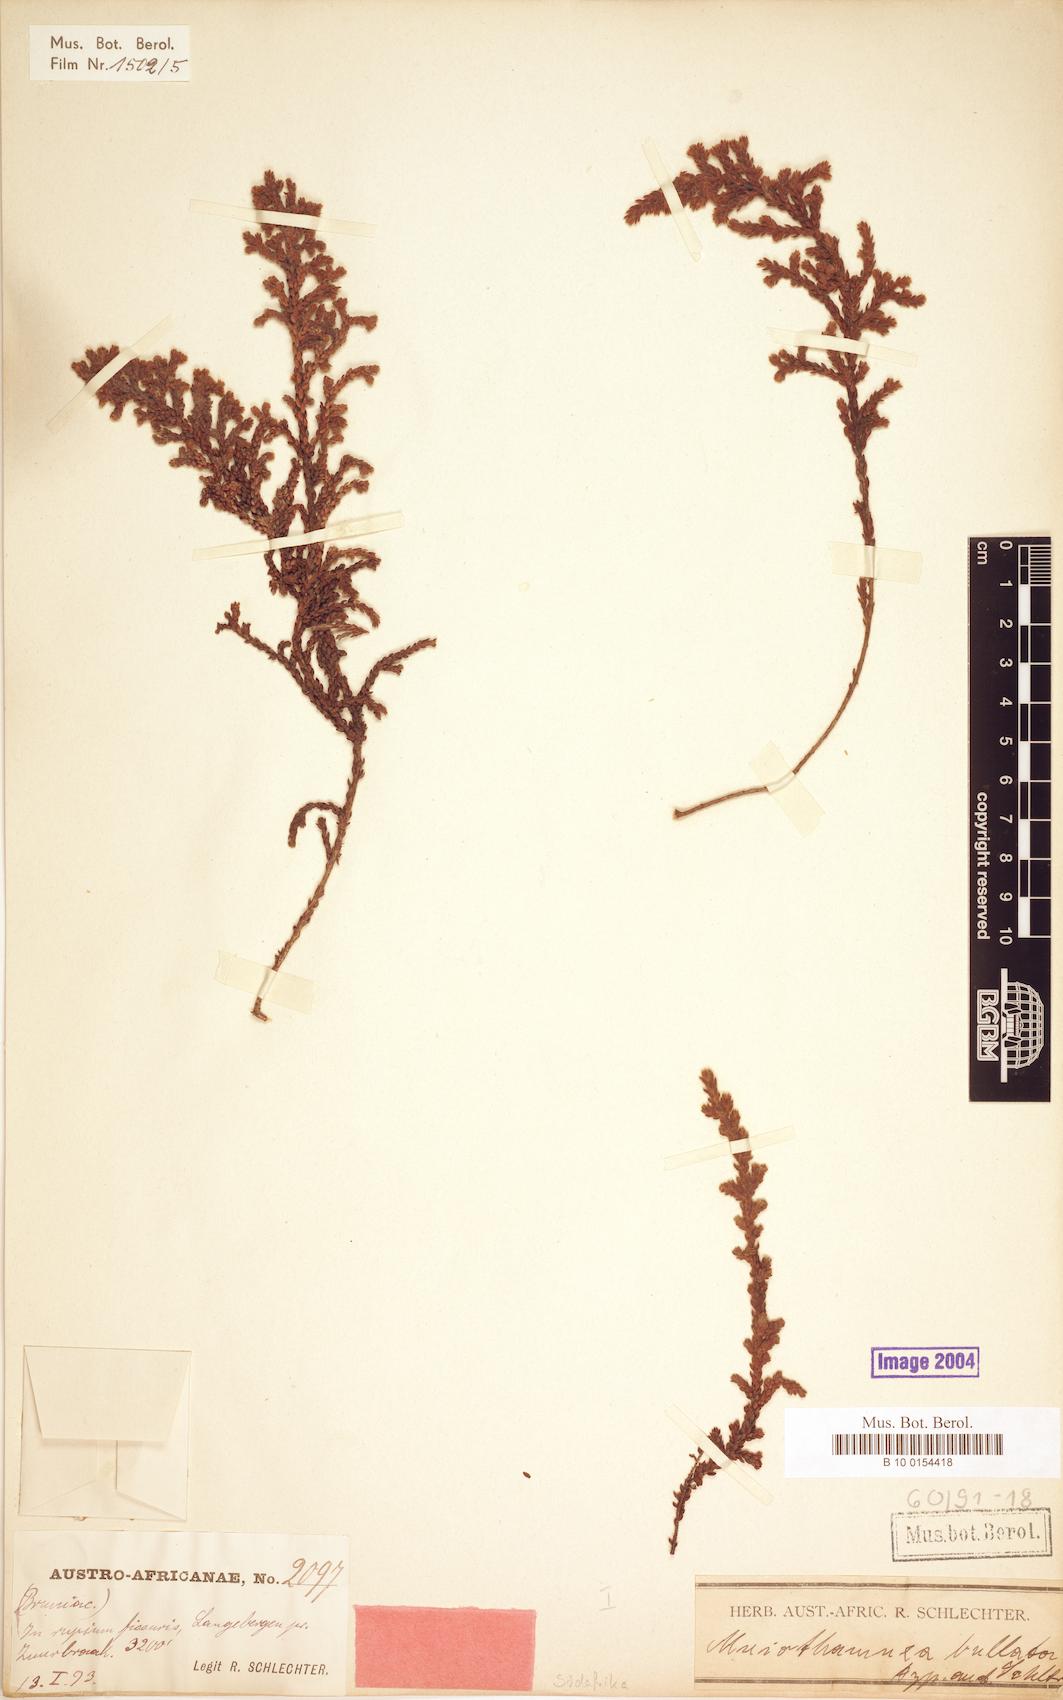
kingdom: Plantae
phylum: Tracheophyta
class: Magnoliopsida
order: Bruniales
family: Bruniaceae
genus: Brunia
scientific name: Brunia bullata
